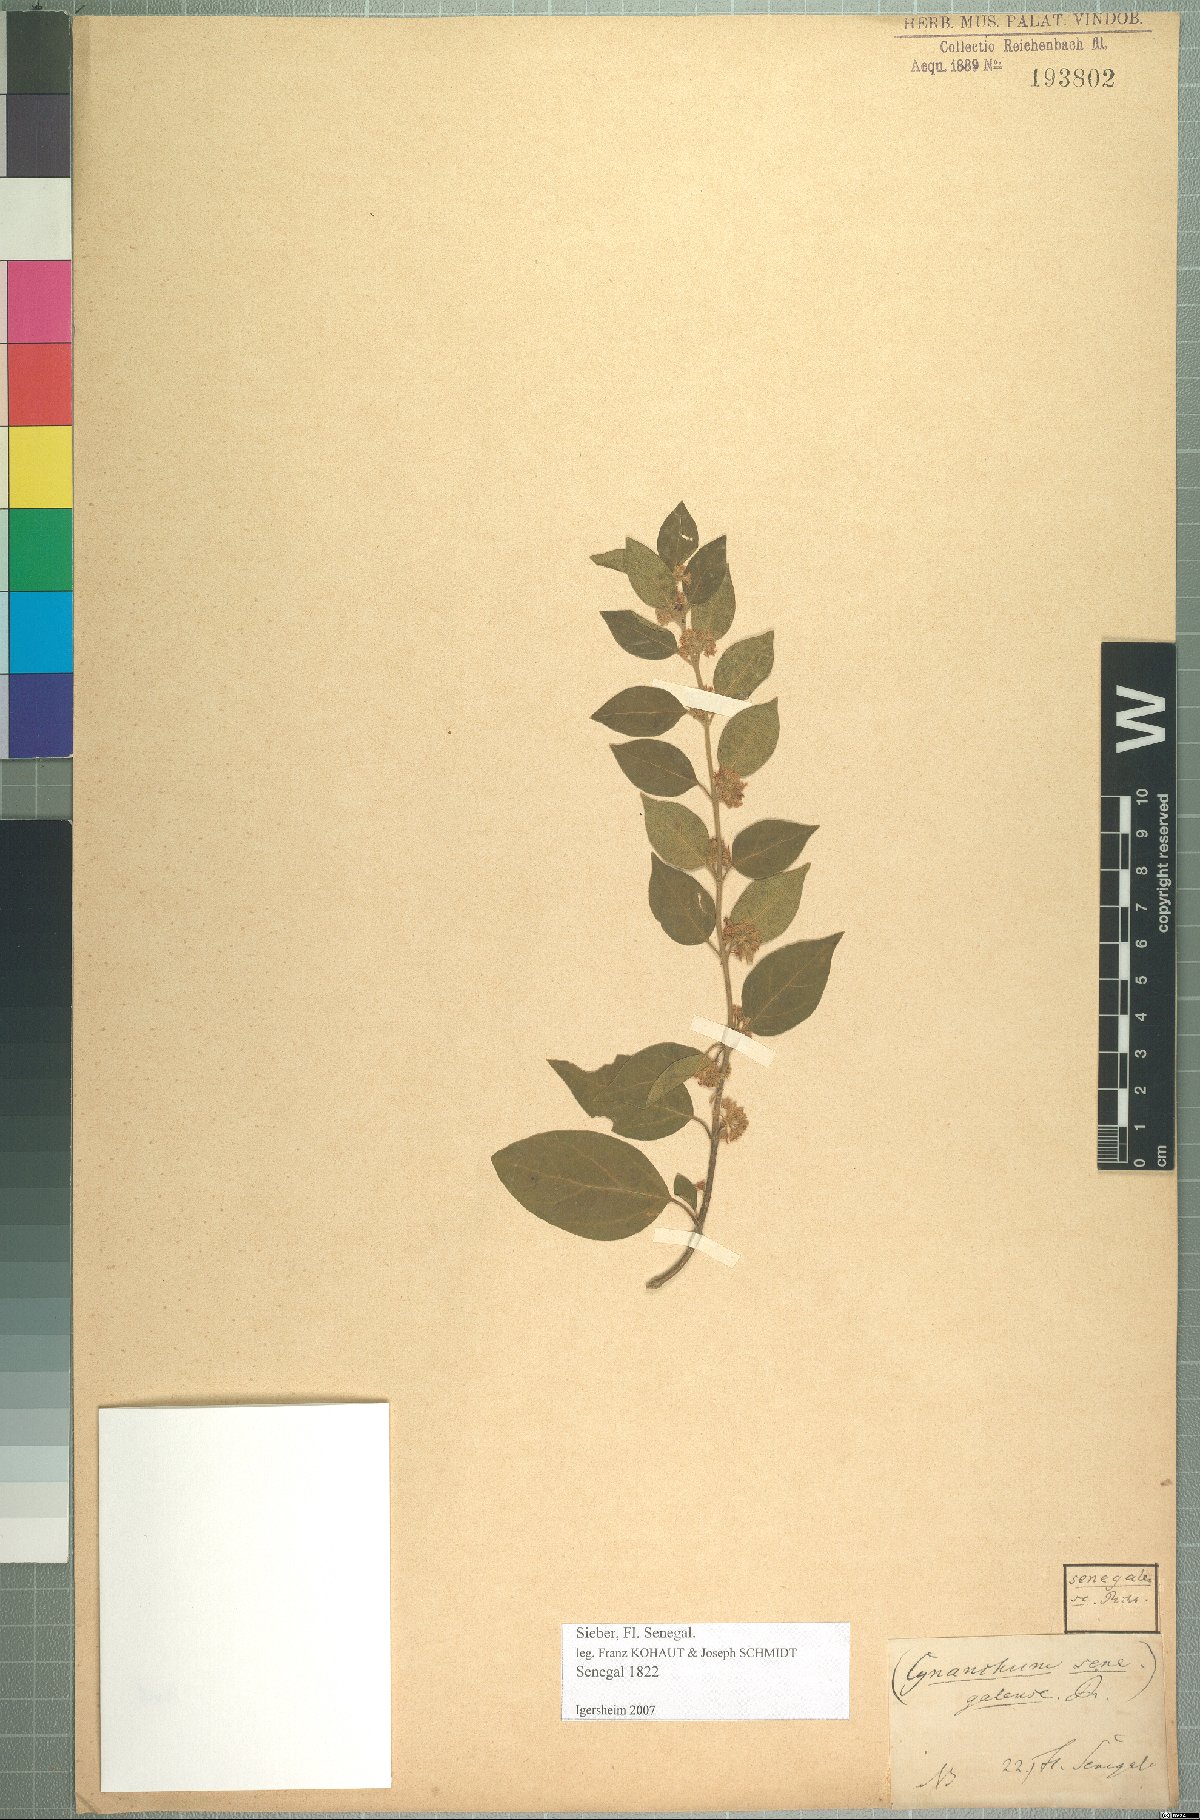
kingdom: Plantae
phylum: Tracheophyta
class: Magnoliopsida
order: Gentianales
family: Apocynaceae
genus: Gymnema
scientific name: Gymnema sylvestre
